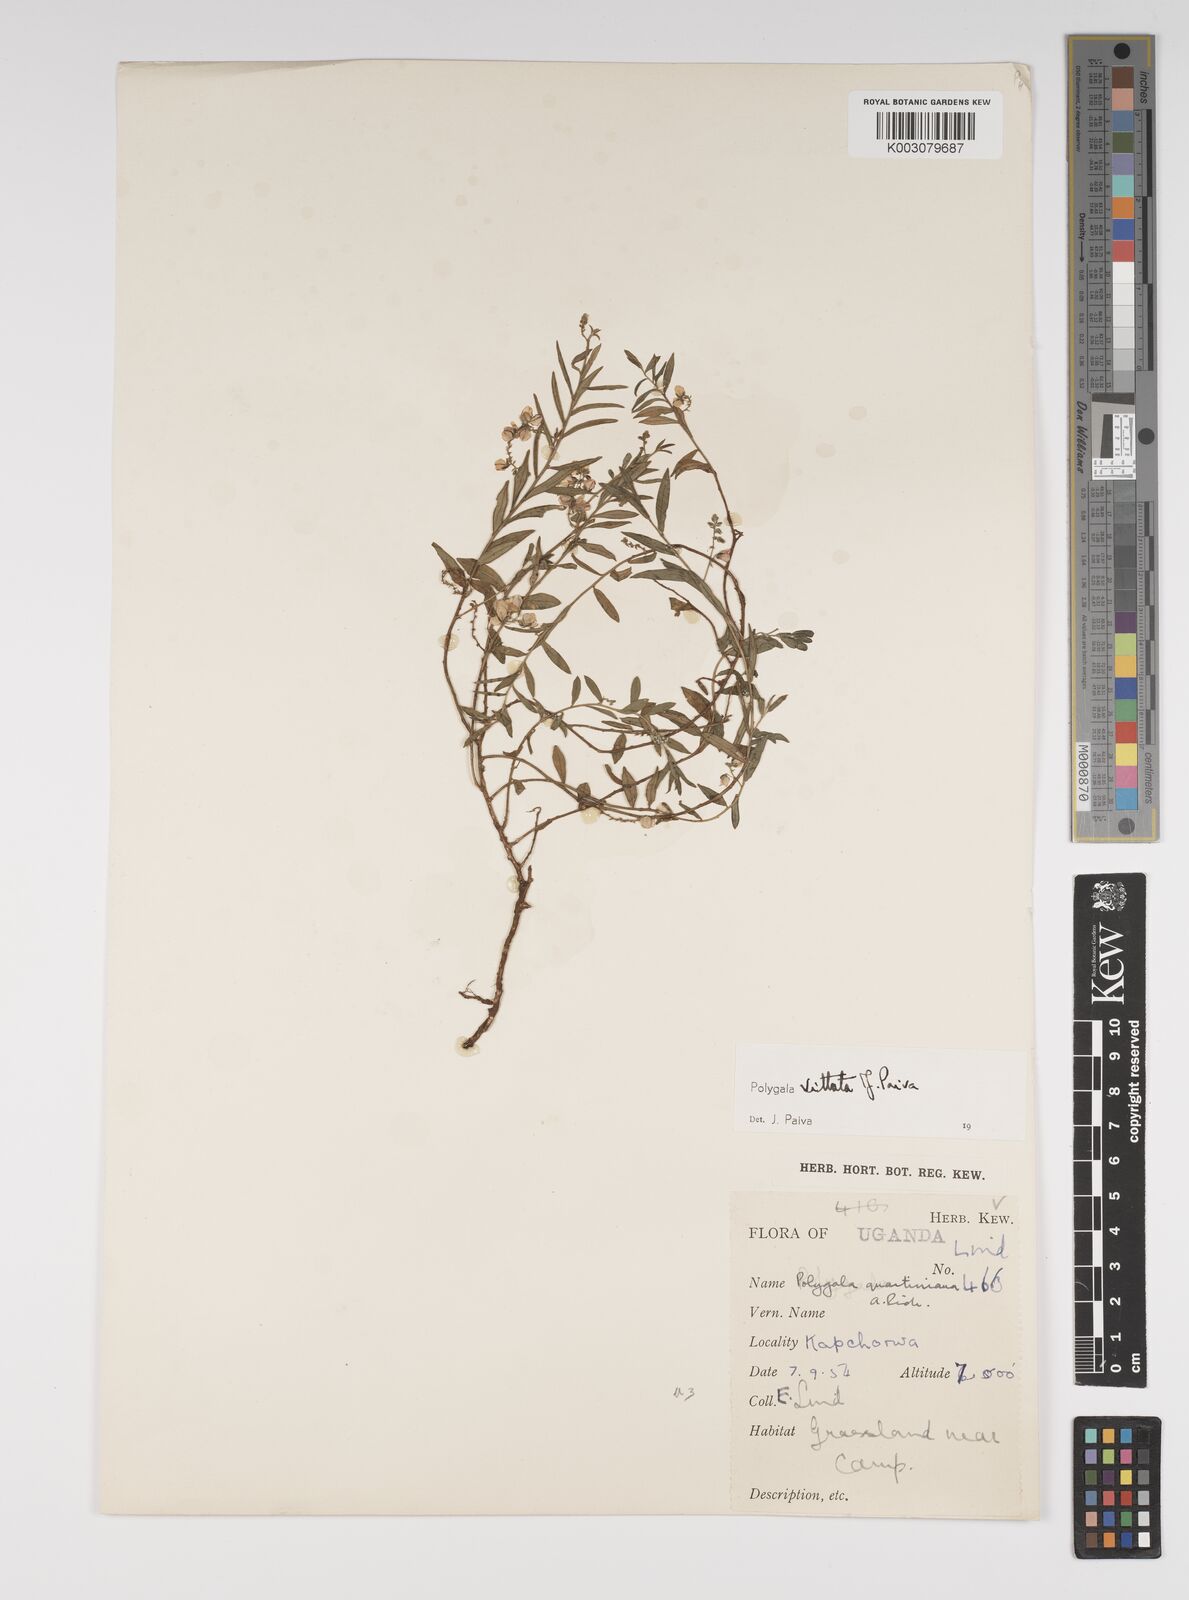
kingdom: Plantae
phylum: Tracheophyta
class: Magnoliopsida
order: Fabales
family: Polygalaceae
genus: Polygala
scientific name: Polygala vittata
